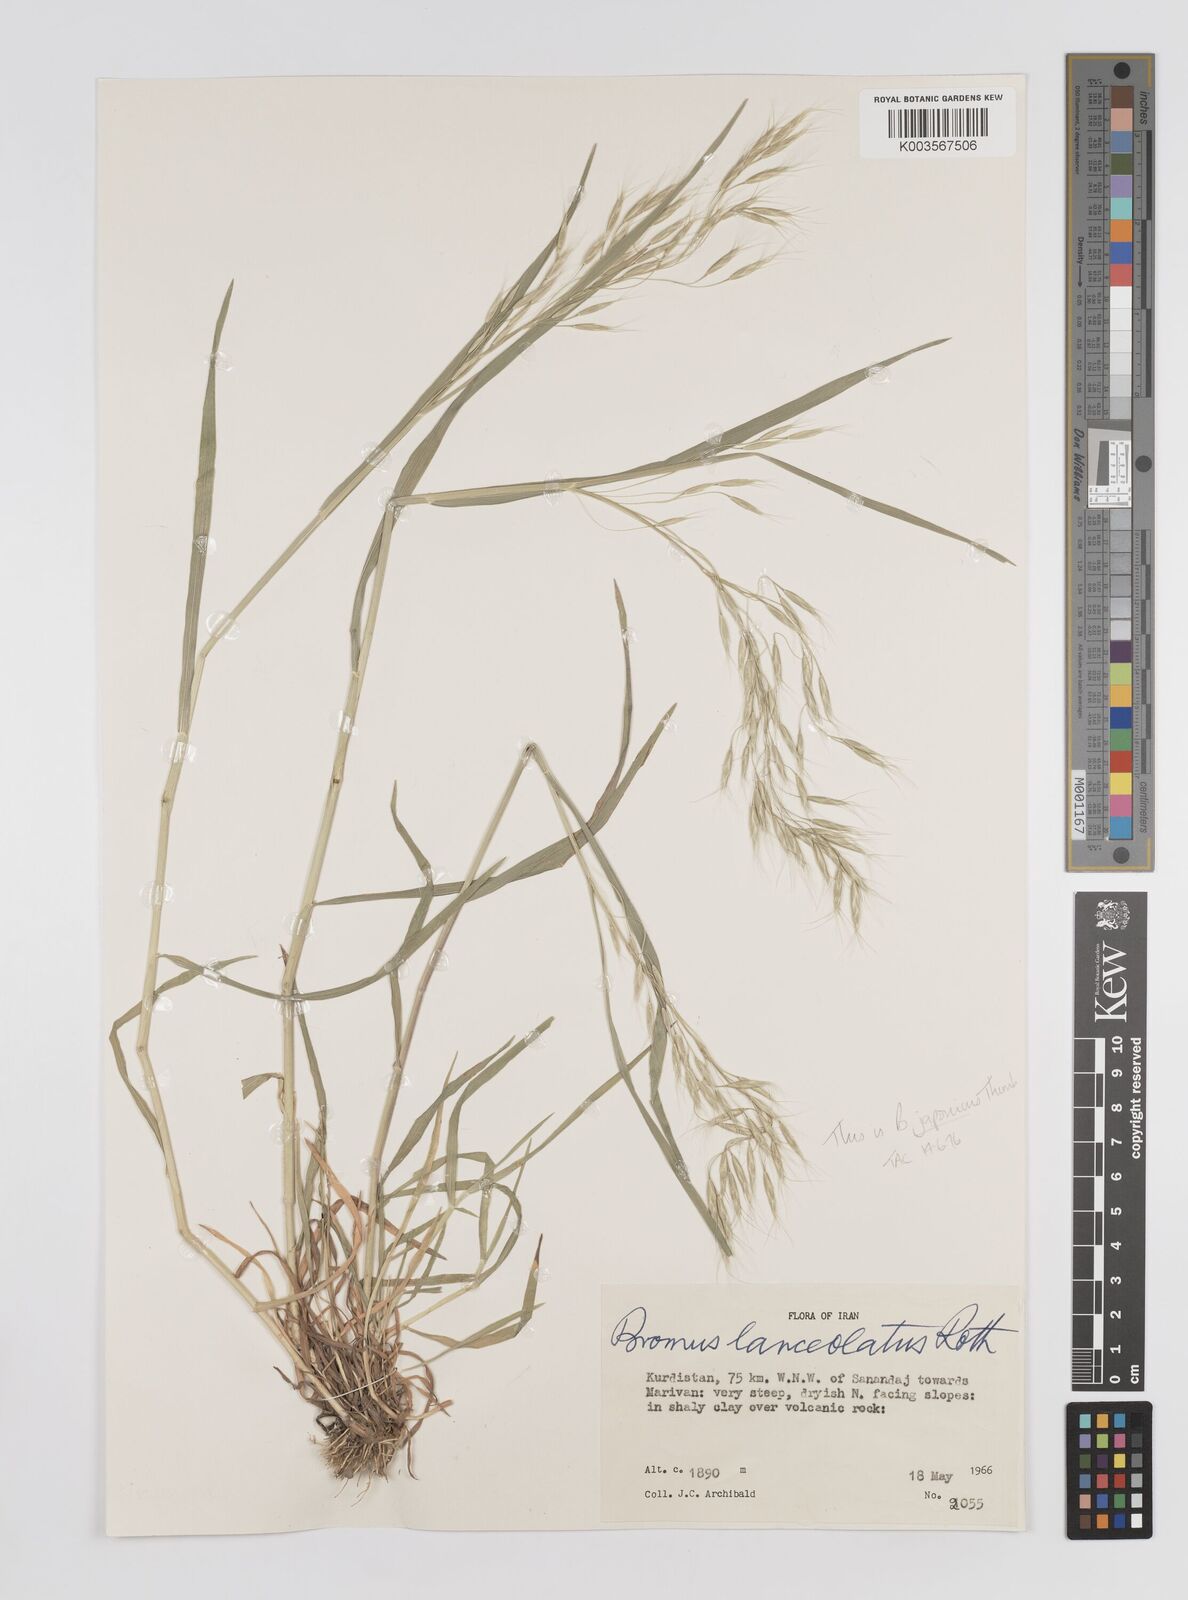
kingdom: Plantae
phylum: Tracheophyta
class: Liliopsida
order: Poales
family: Poaceae
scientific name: Poaceae
